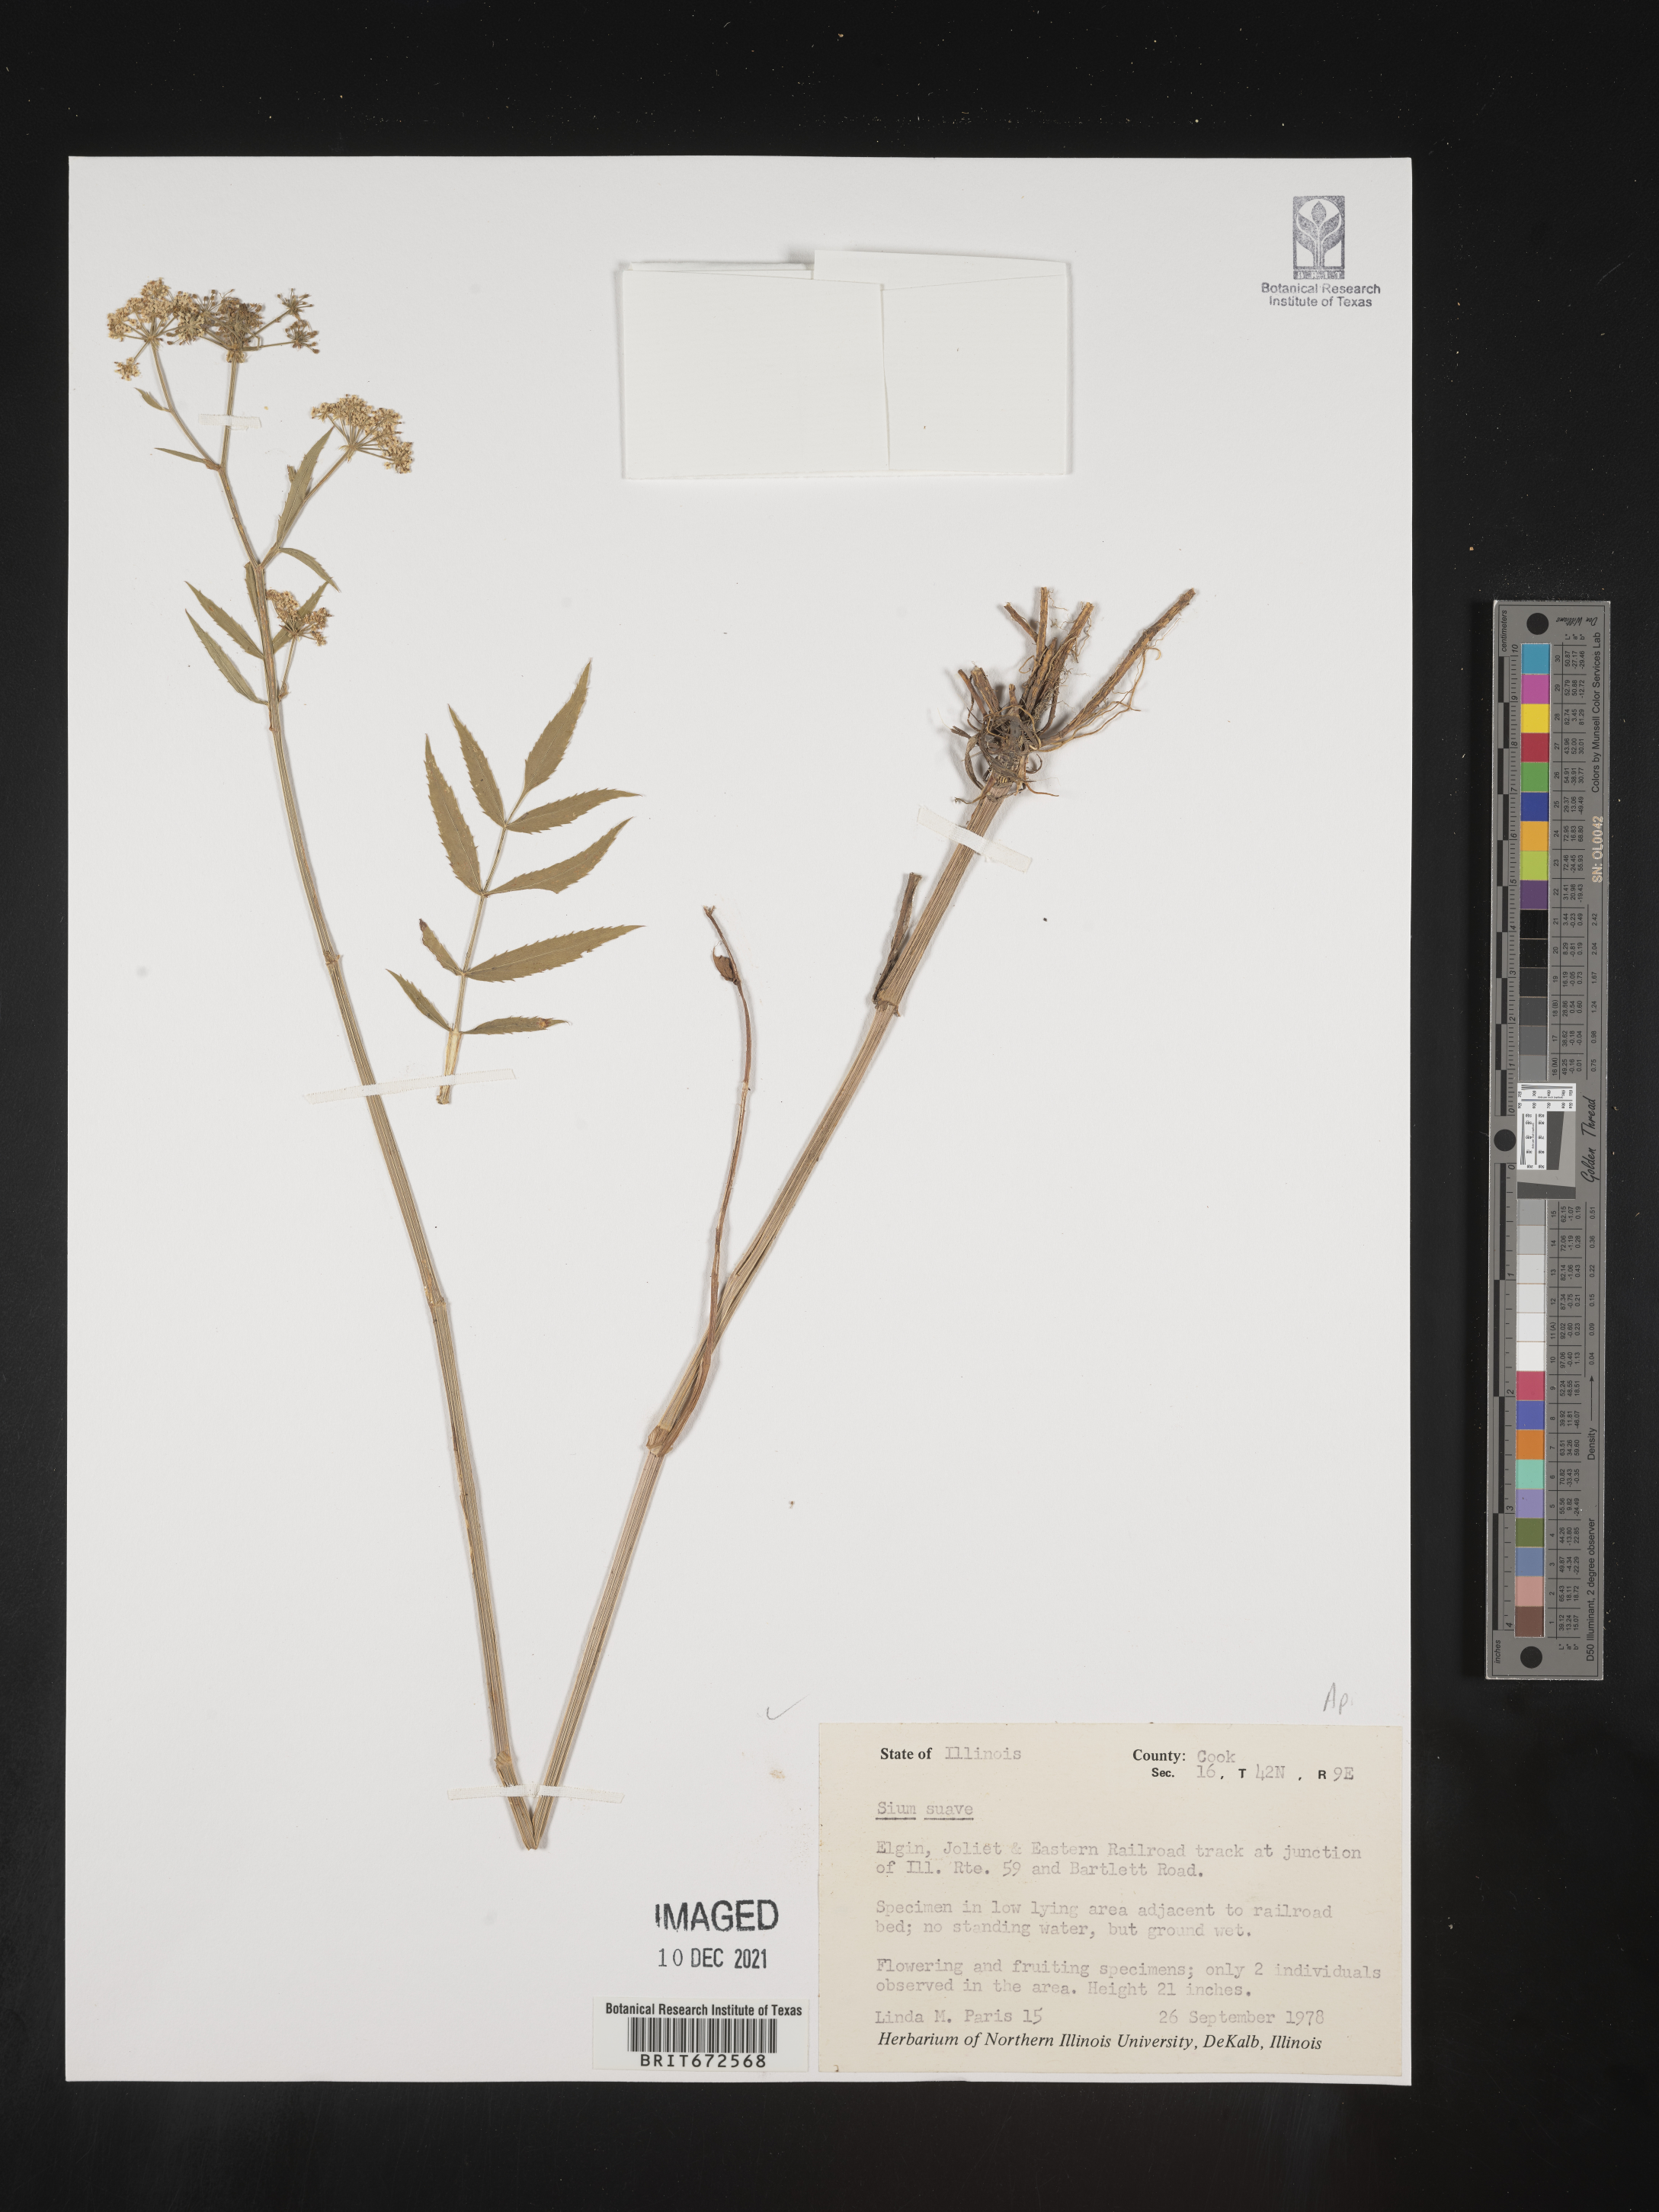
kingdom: Plantae
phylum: Tracheophyta
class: Magnoliopsida
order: Apiales
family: Apiaceae
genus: Sium
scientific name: Sium suave
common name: Hemlock water-parsnip
